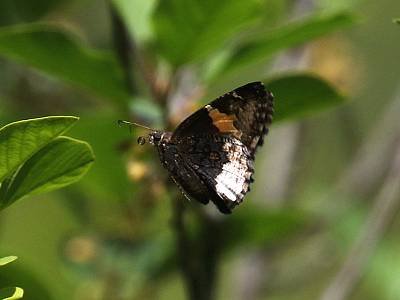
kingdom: Animalia
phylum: Arthropoda
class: Insecta
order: Lepidoptera
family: Hesperiidae
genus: Achalarus
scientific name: Achalarus lyciades
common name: Hoary Edge
